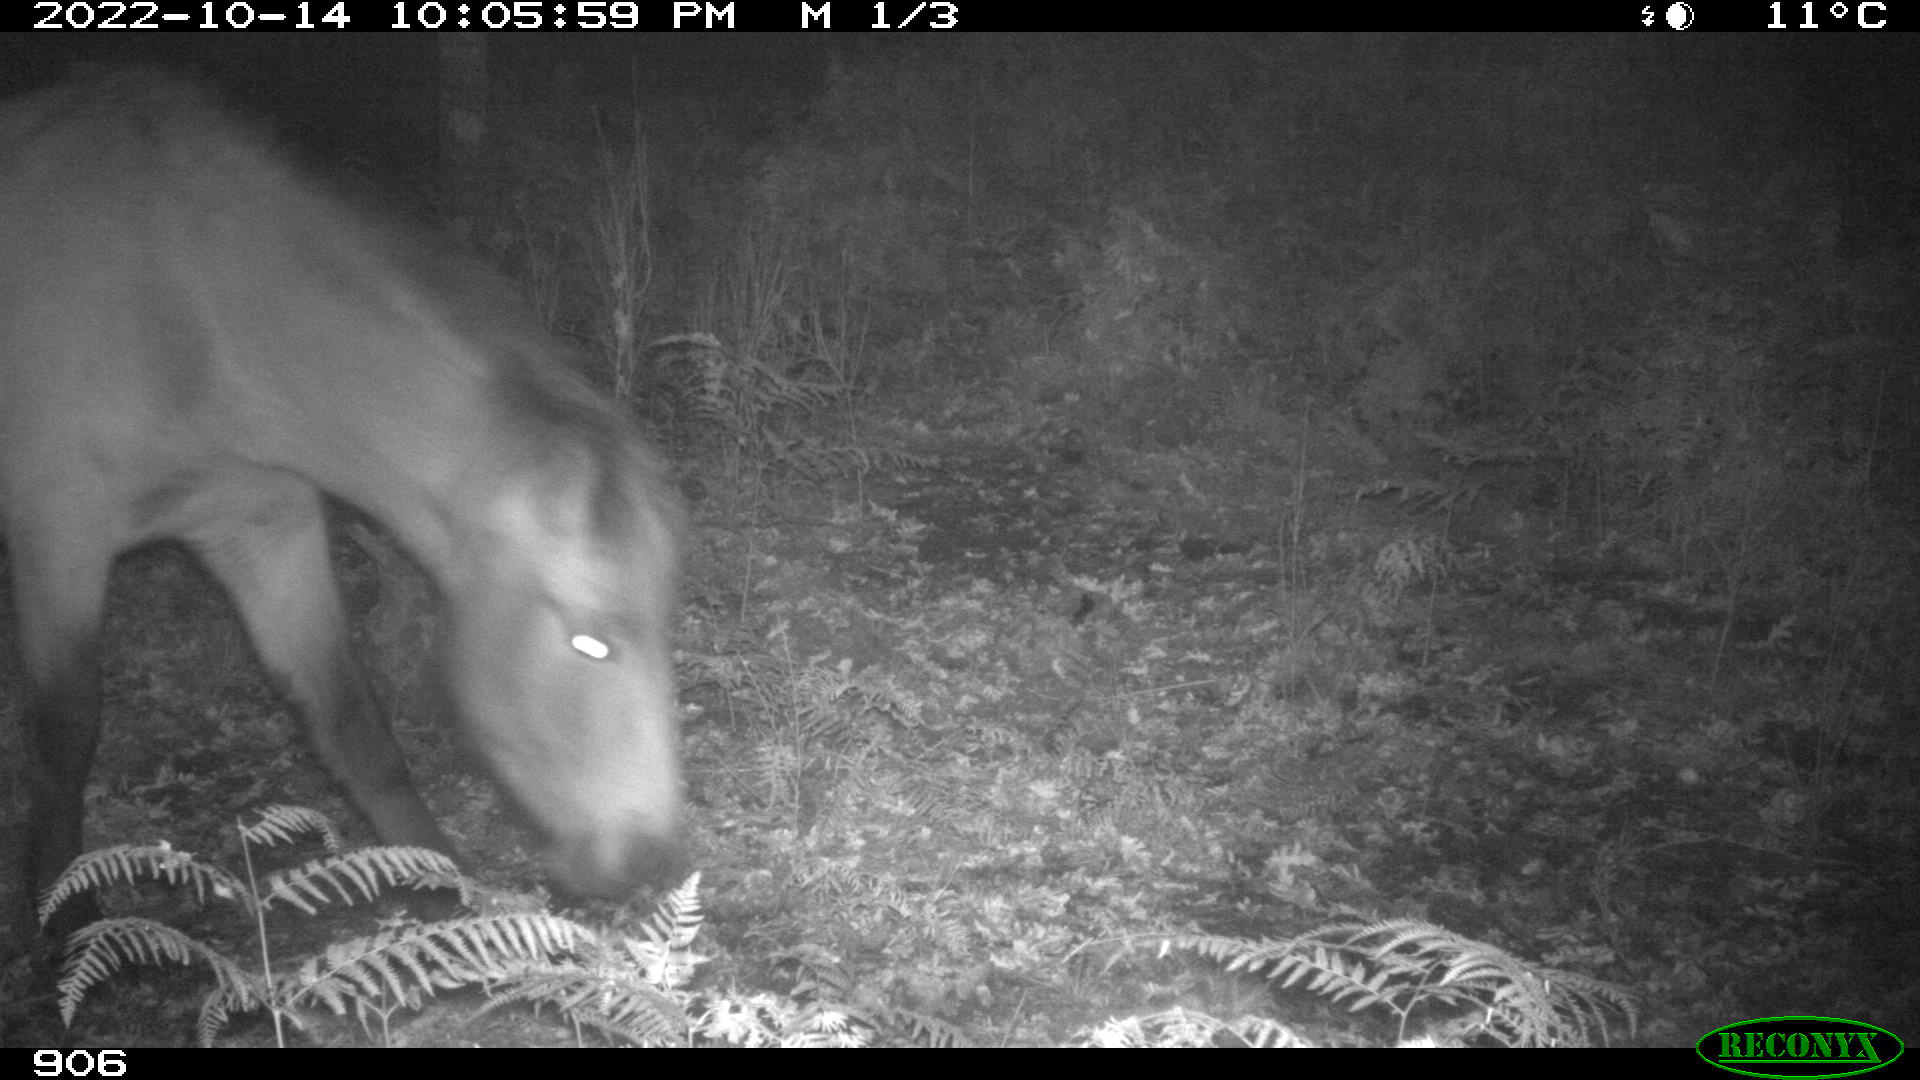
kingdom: Animalia
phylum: Chordata
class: Mammalia
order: Perissodactyla
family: Equidae
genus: Equus
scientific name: Equus caballus
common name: Horse
